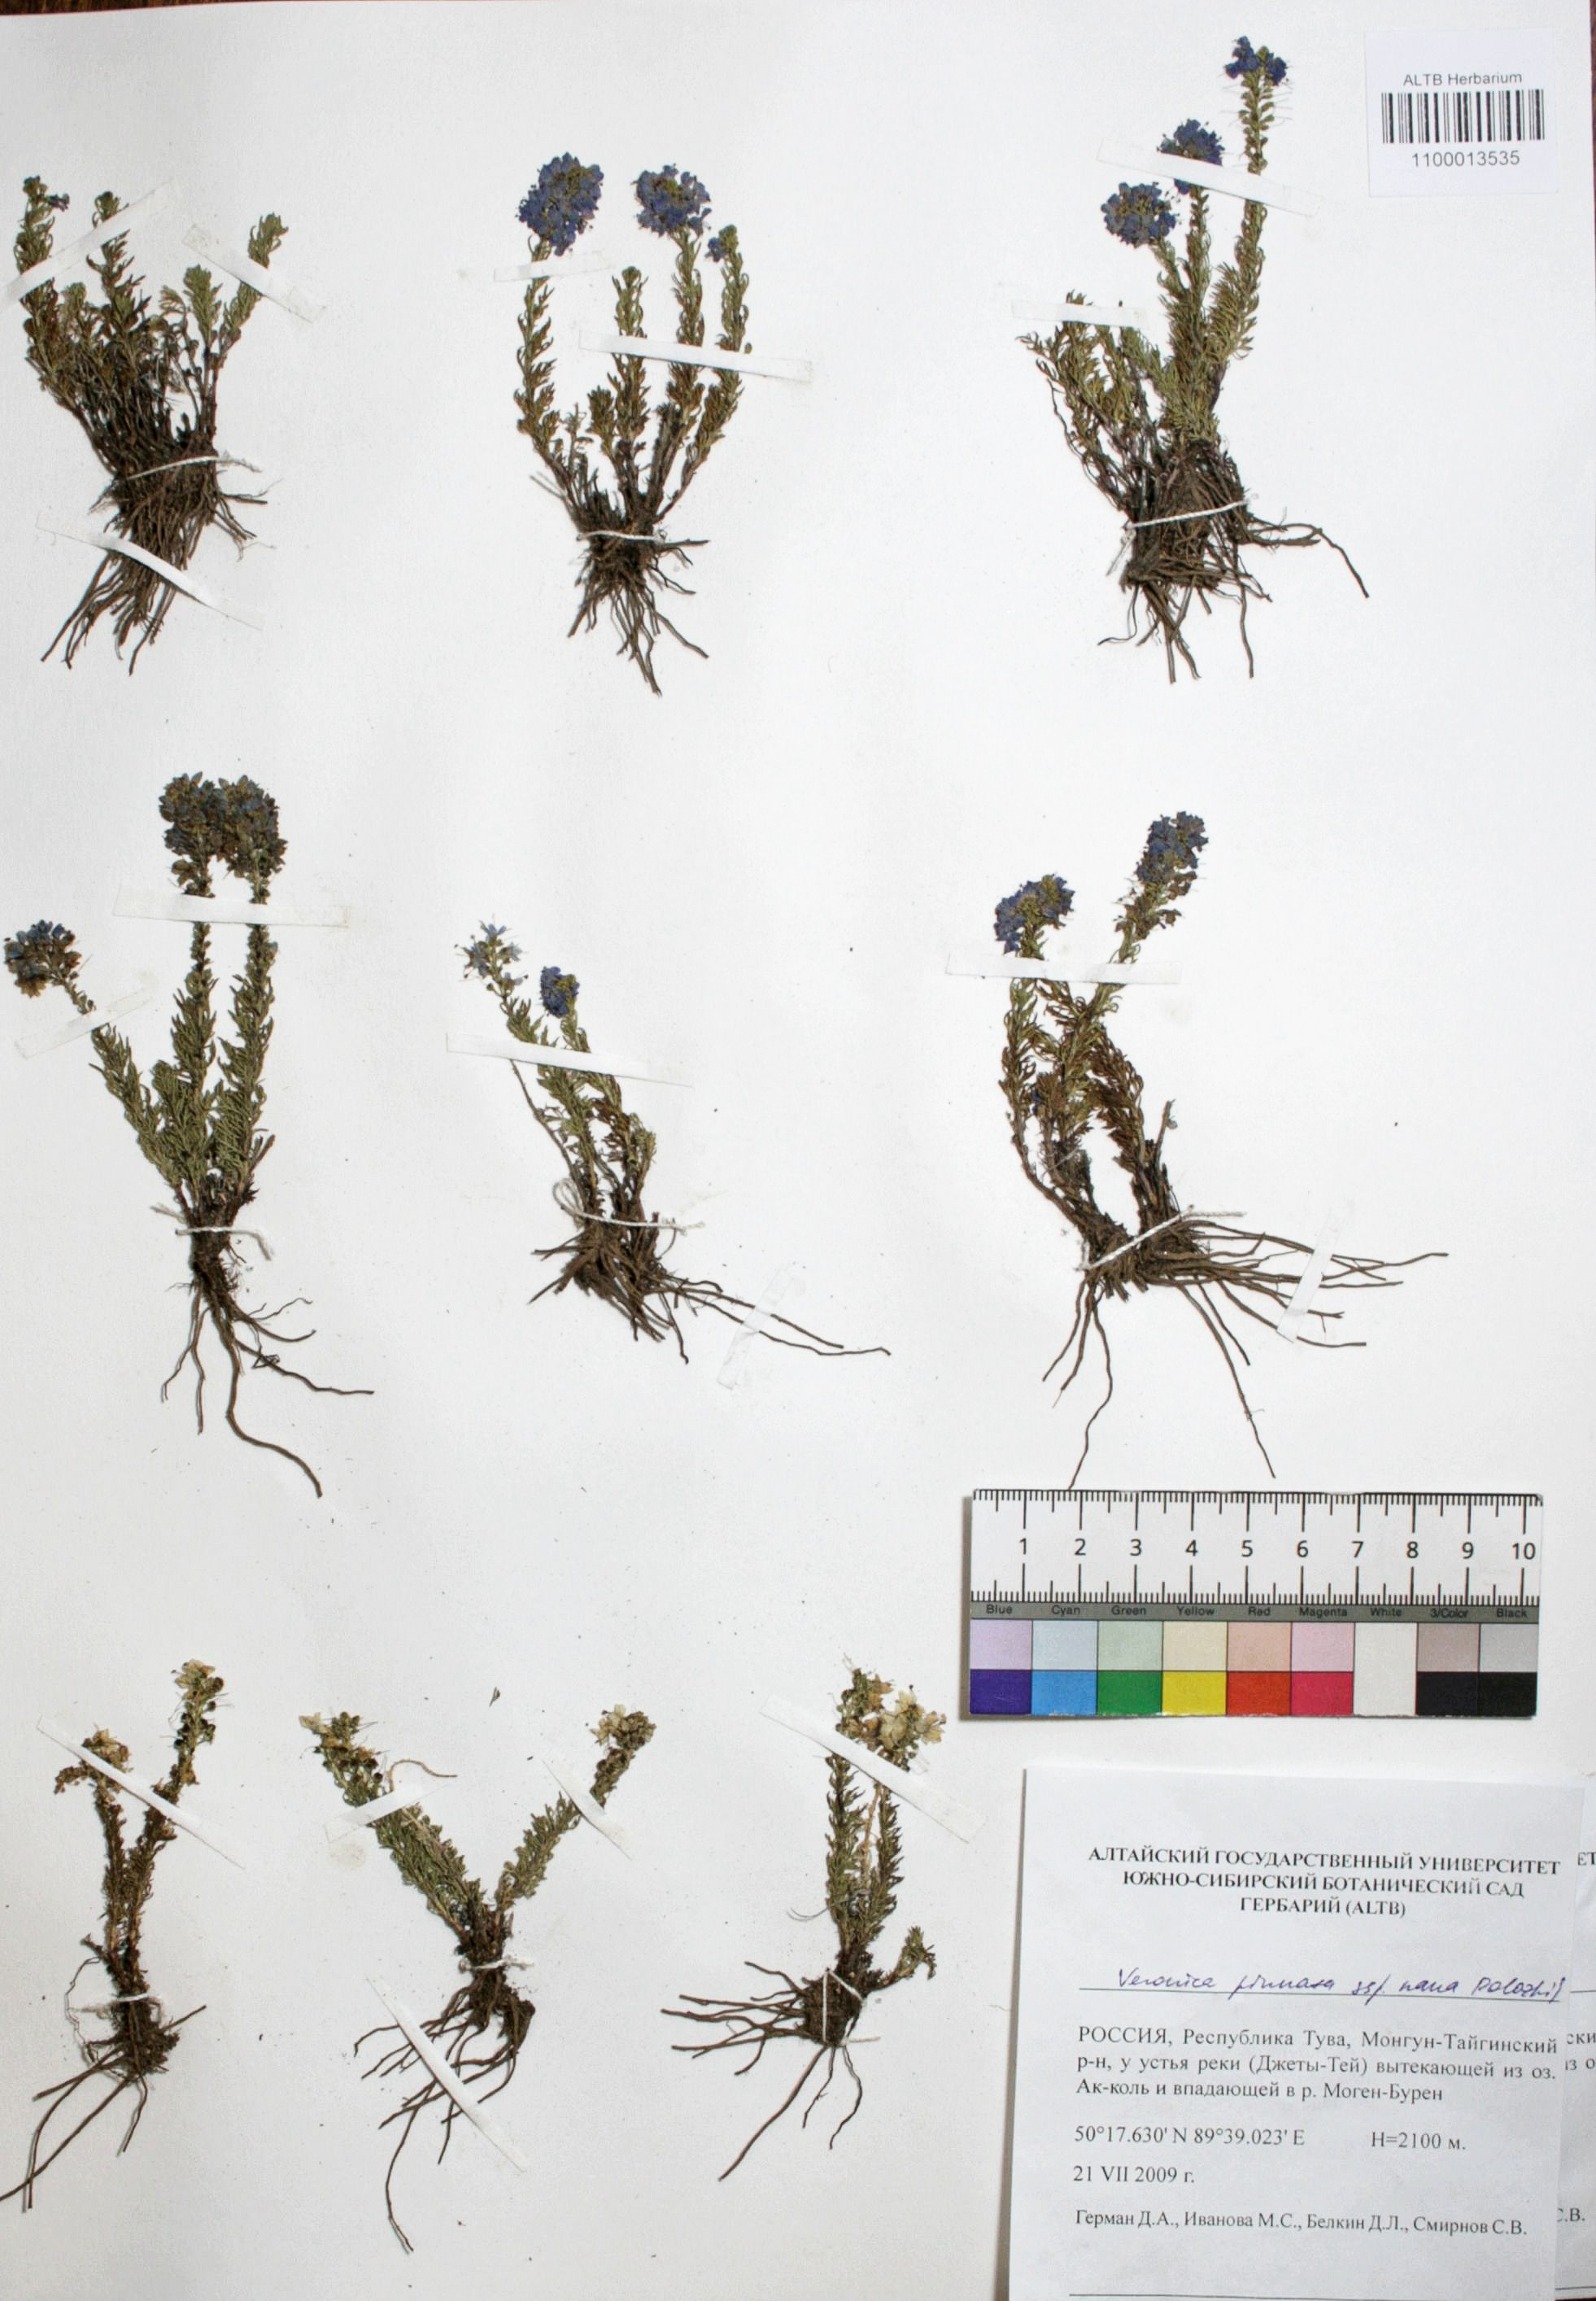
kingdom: Plantae
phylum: Tracheophyta
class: Magnoliopsida
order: Lamiales
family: Plantaginaceae
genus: Veronica
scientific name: Veronica pinnata
